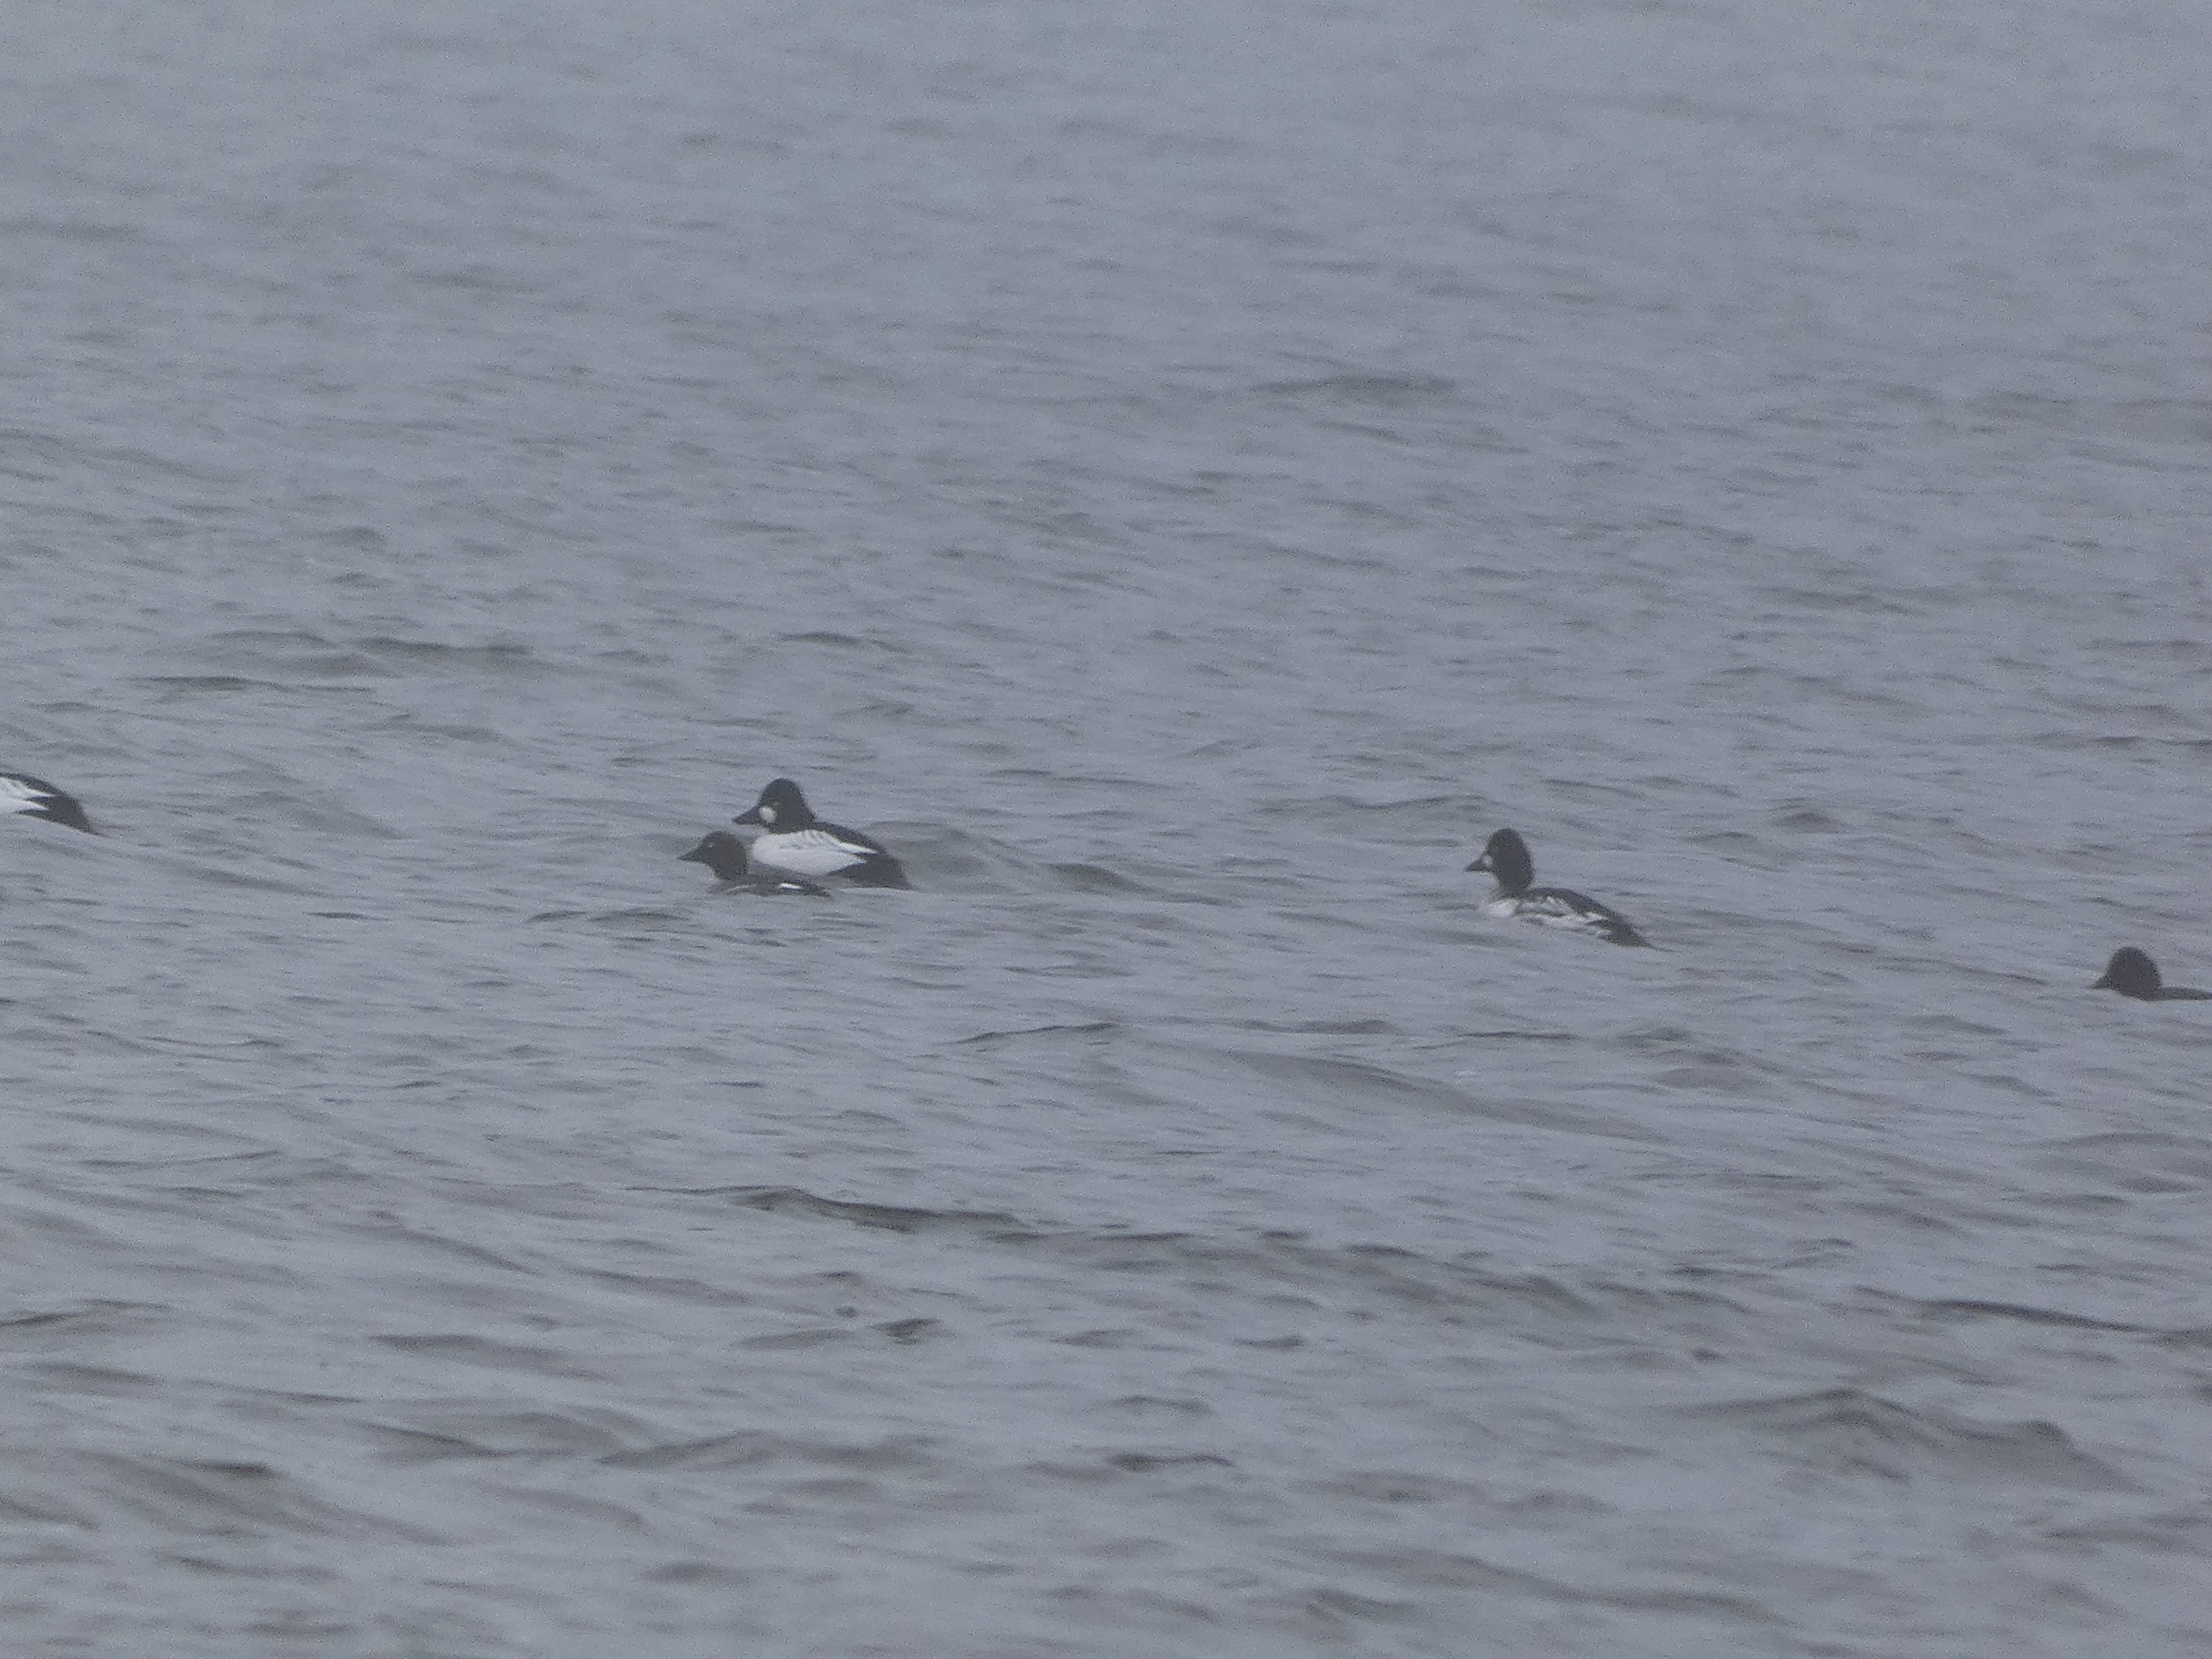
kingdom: Animalia
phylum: Chordata
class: Aves
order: Anseriformes
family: Anatidae
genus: Bucephala
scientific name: Bucephala clangula
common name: Hvinand
